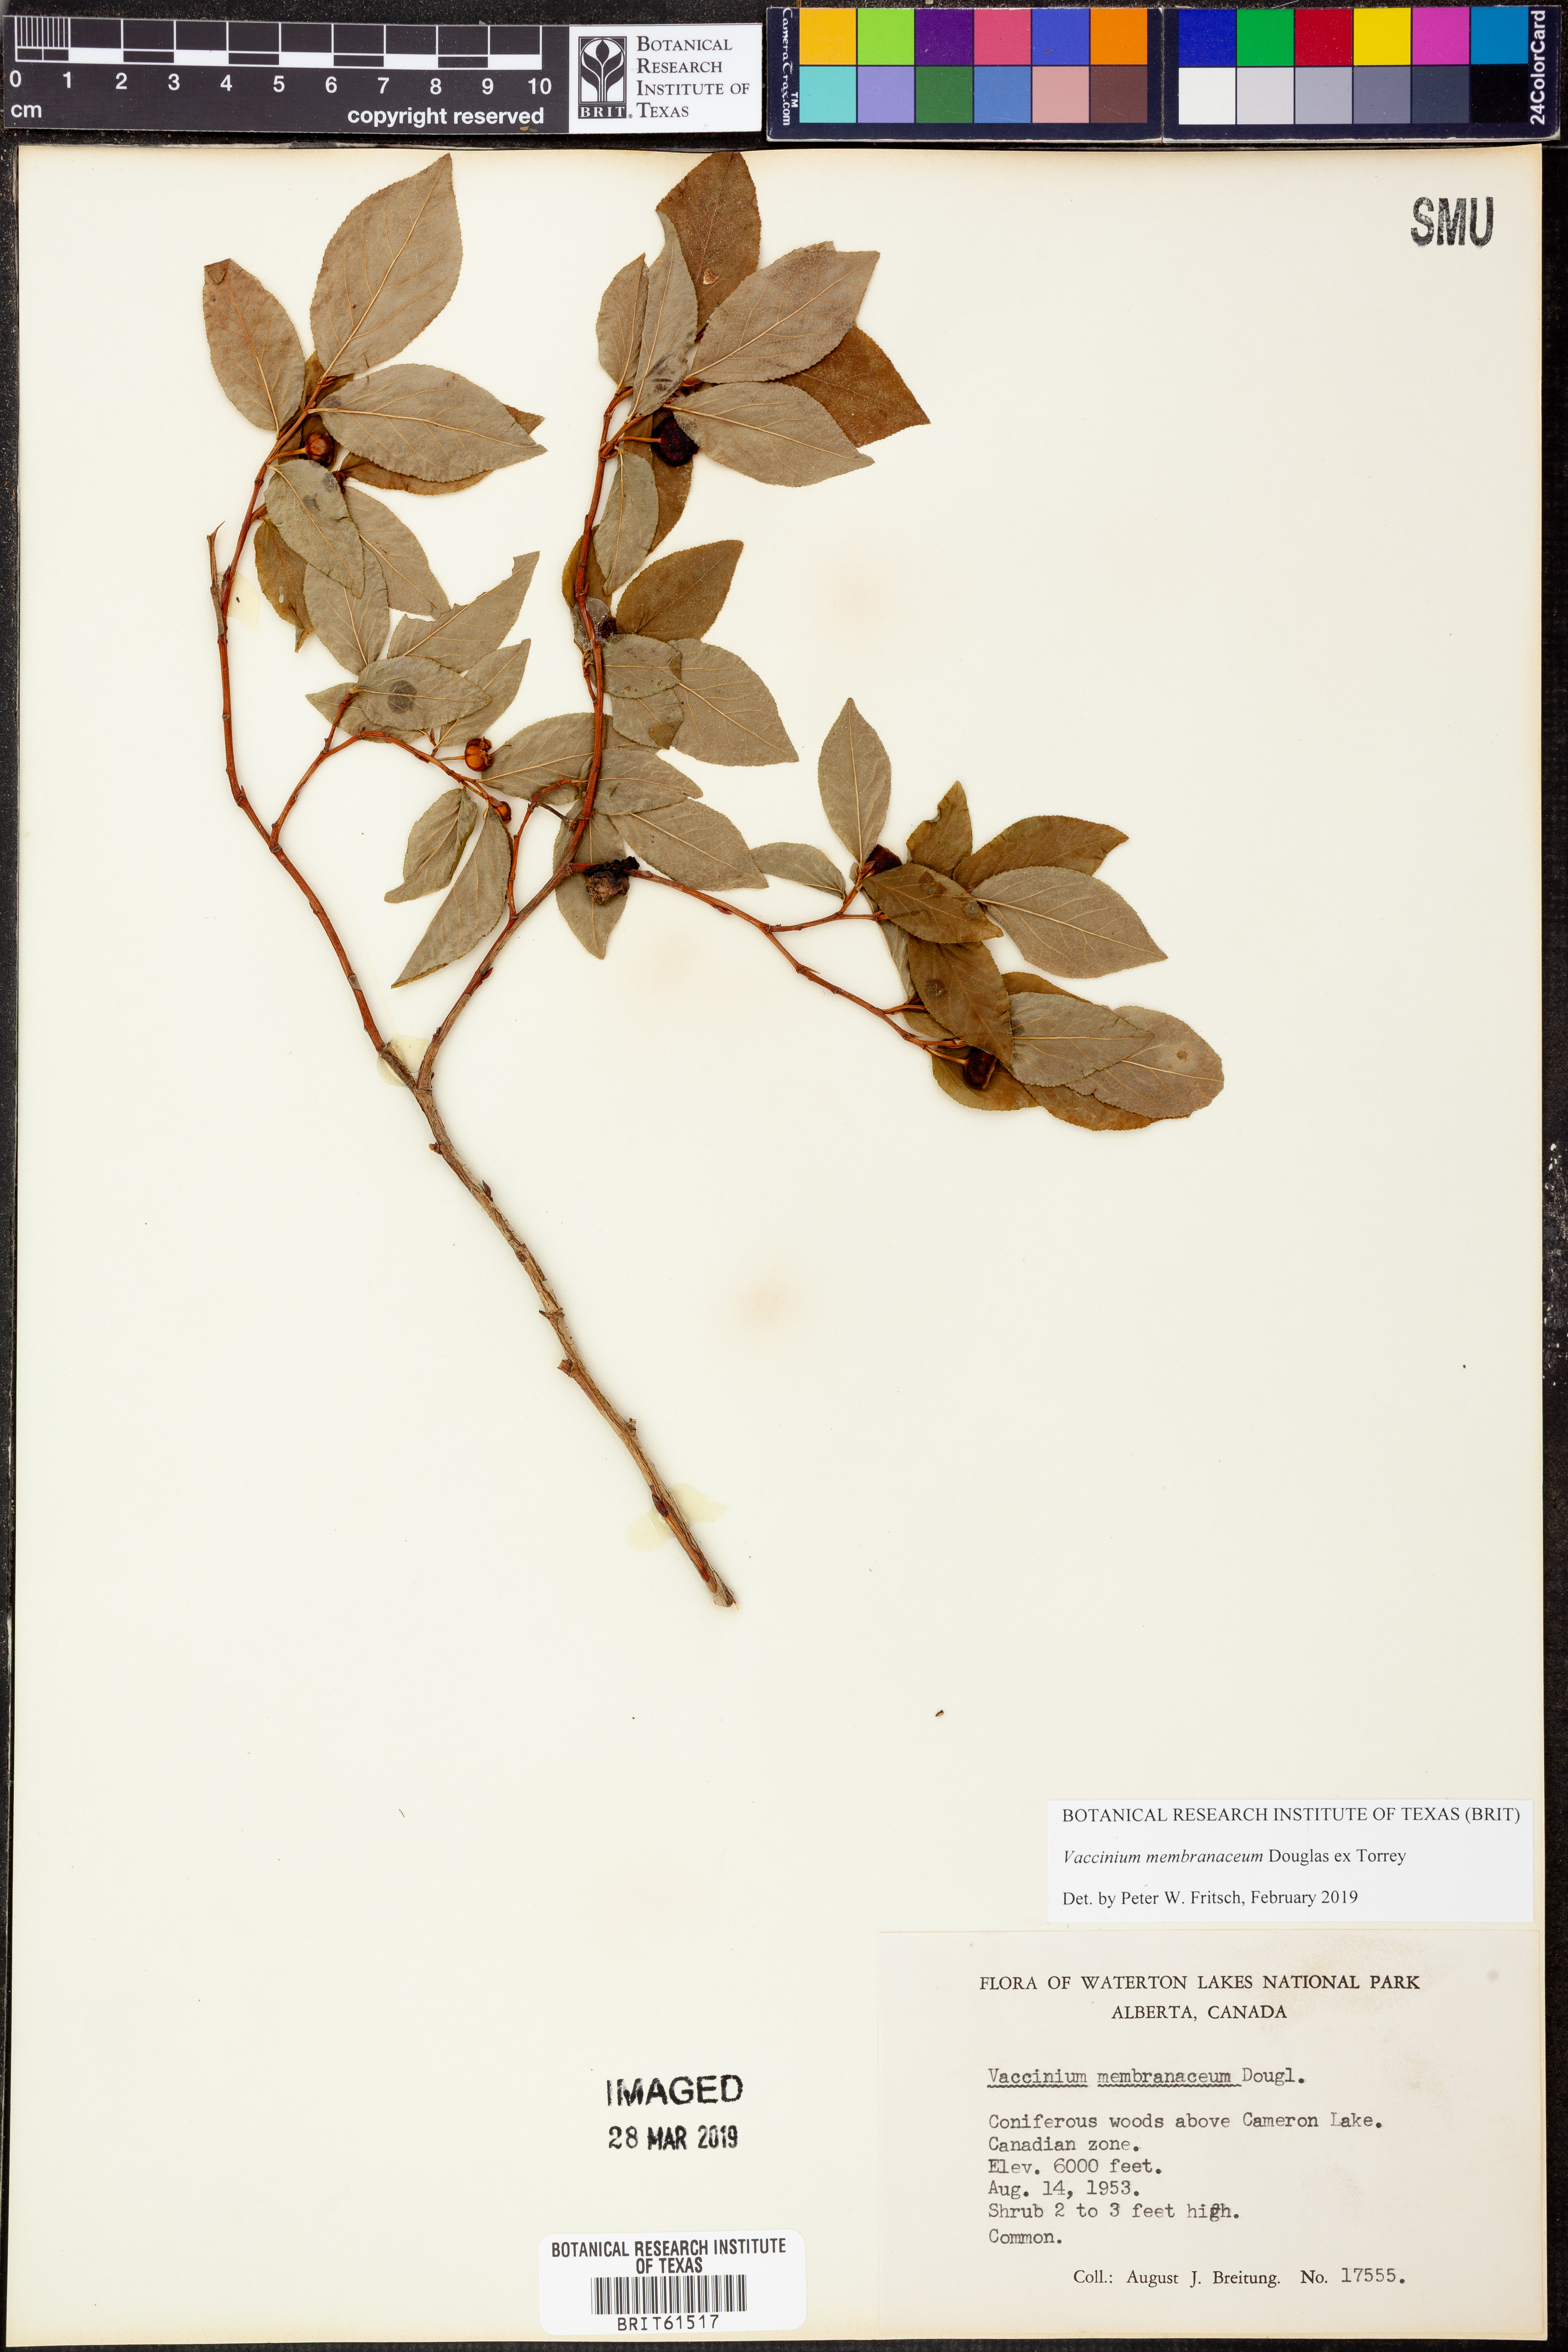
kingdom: Plantae
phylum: Tracheophyta
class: Magnoliopsida
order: Ericales
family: Ericaceae
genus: Vaccinium
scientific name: Vaccinium membranaceum
